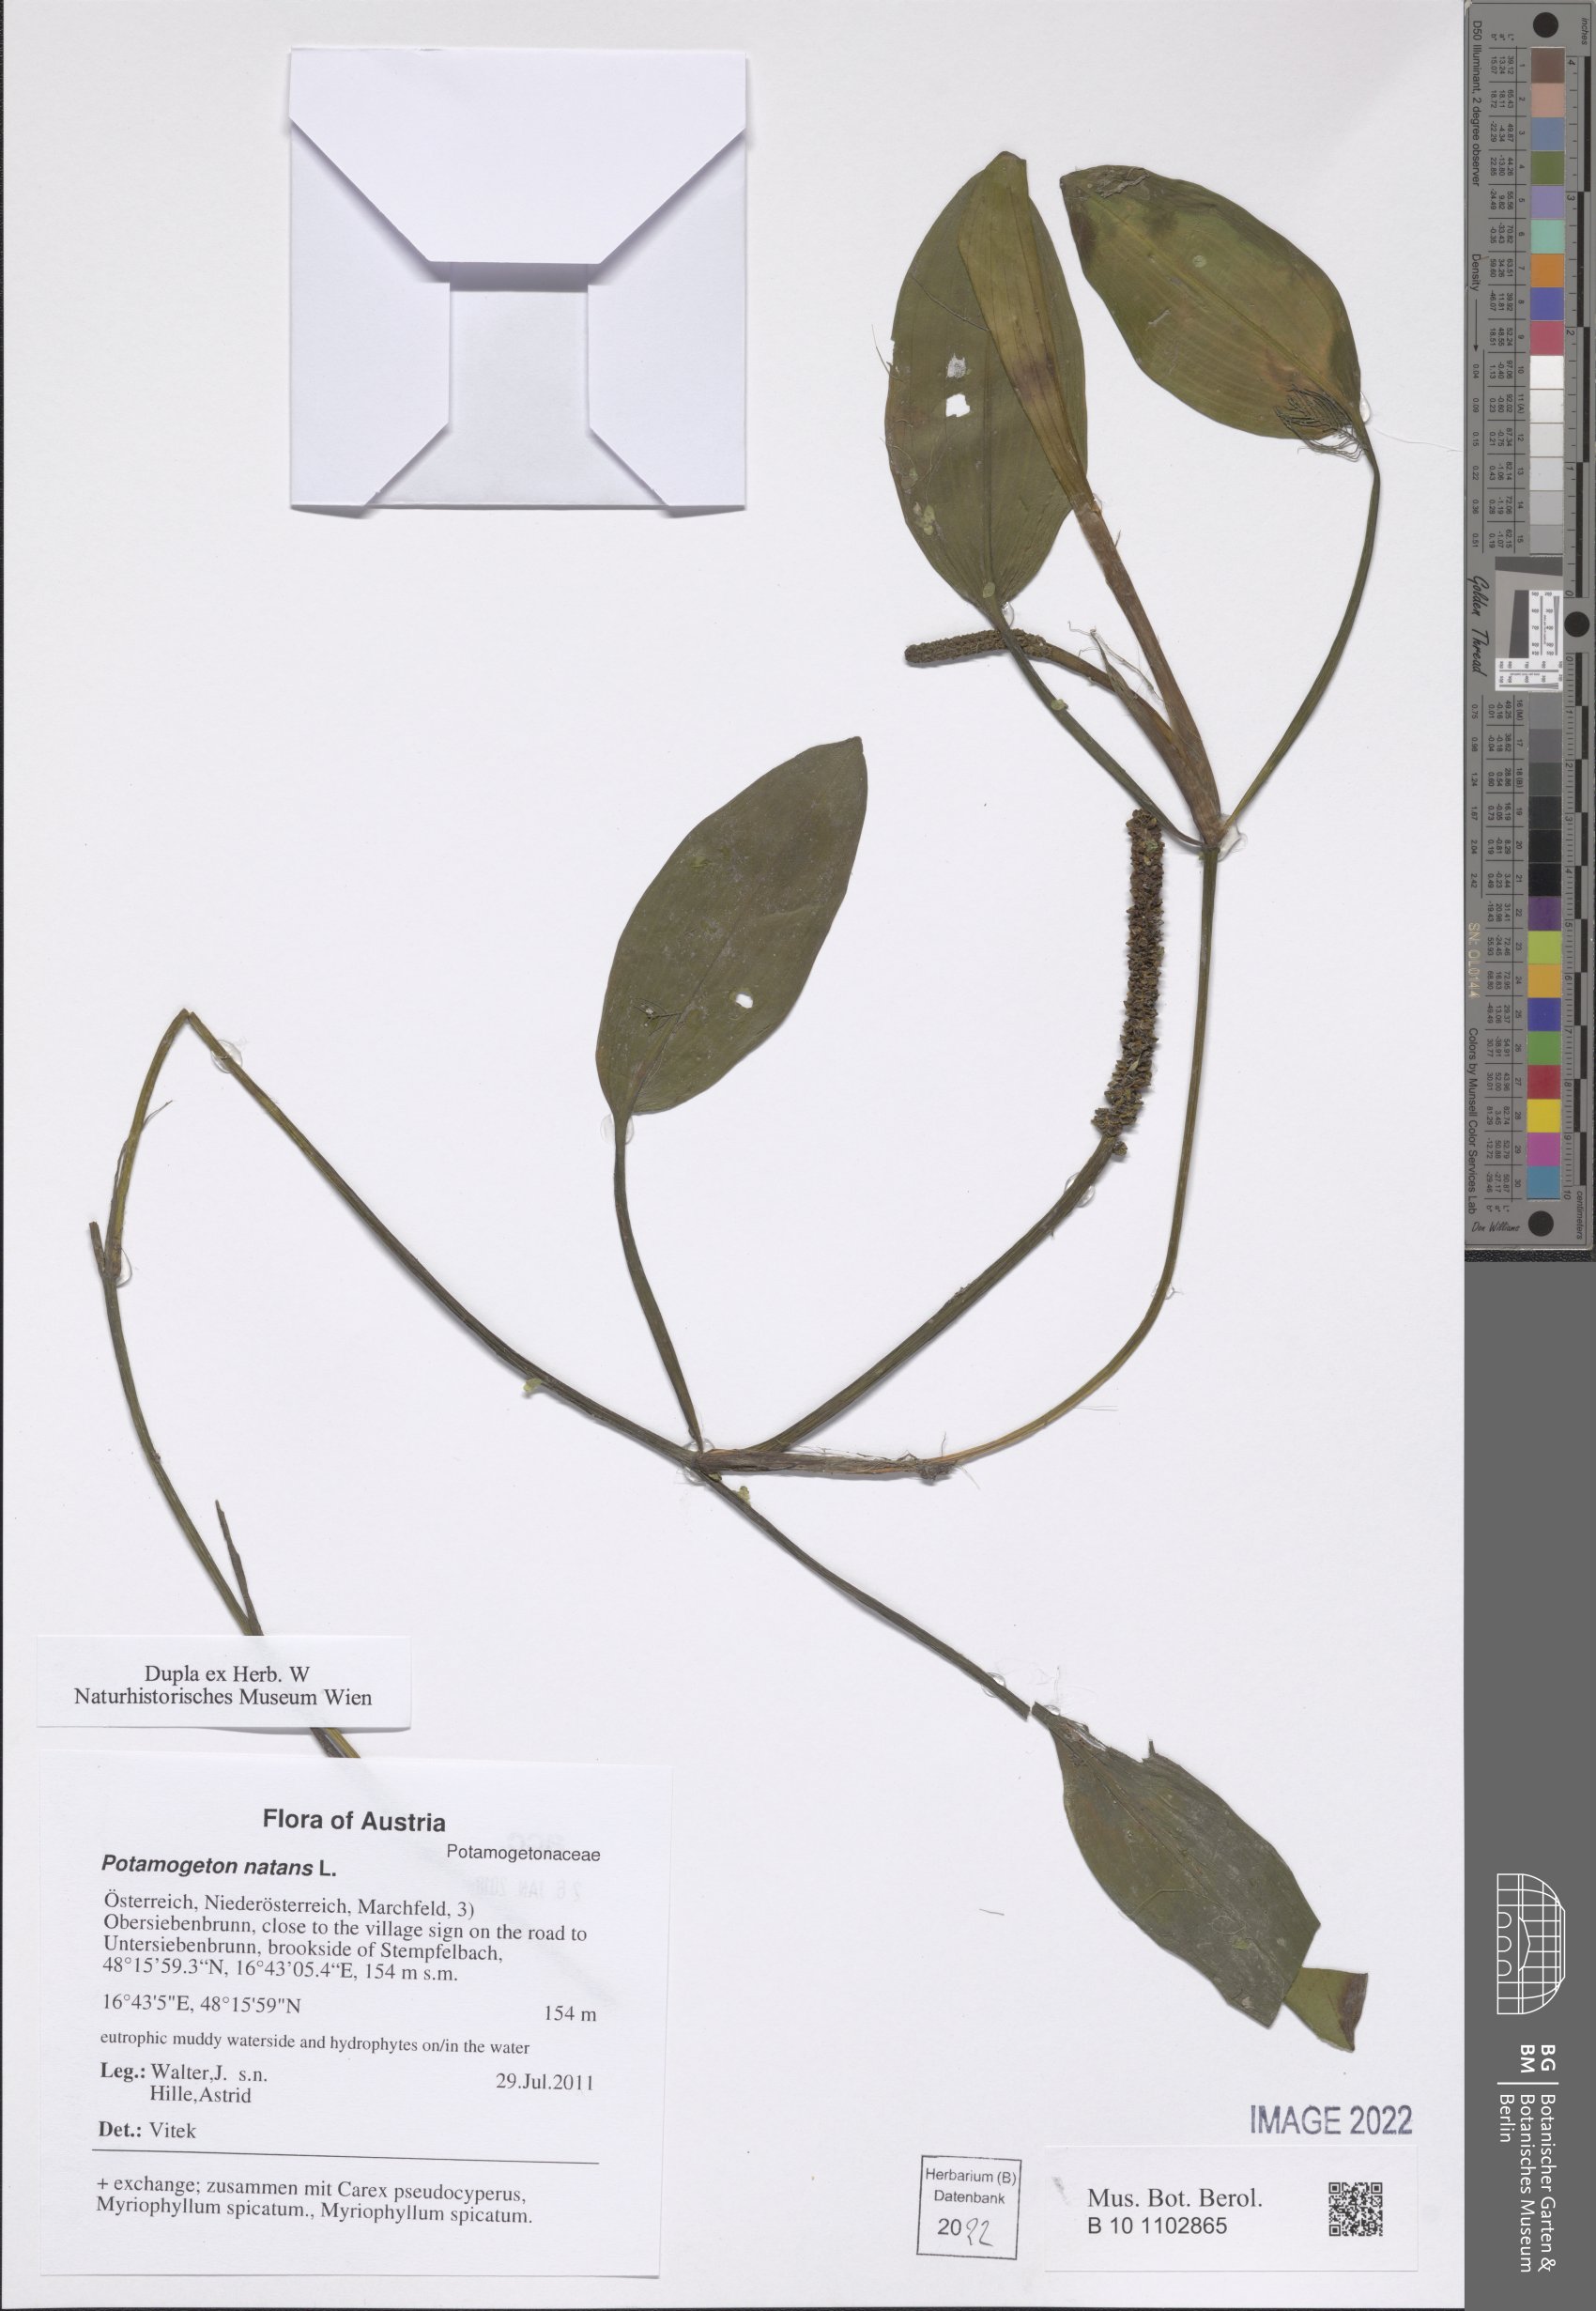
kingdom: Plantae
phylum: Tracheophyta
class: Liliopsida
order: Alismatales
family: Potamogetonaceae
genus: Potamogeton
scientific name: Potamogeton natans
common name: Broad-leaved pondweed
